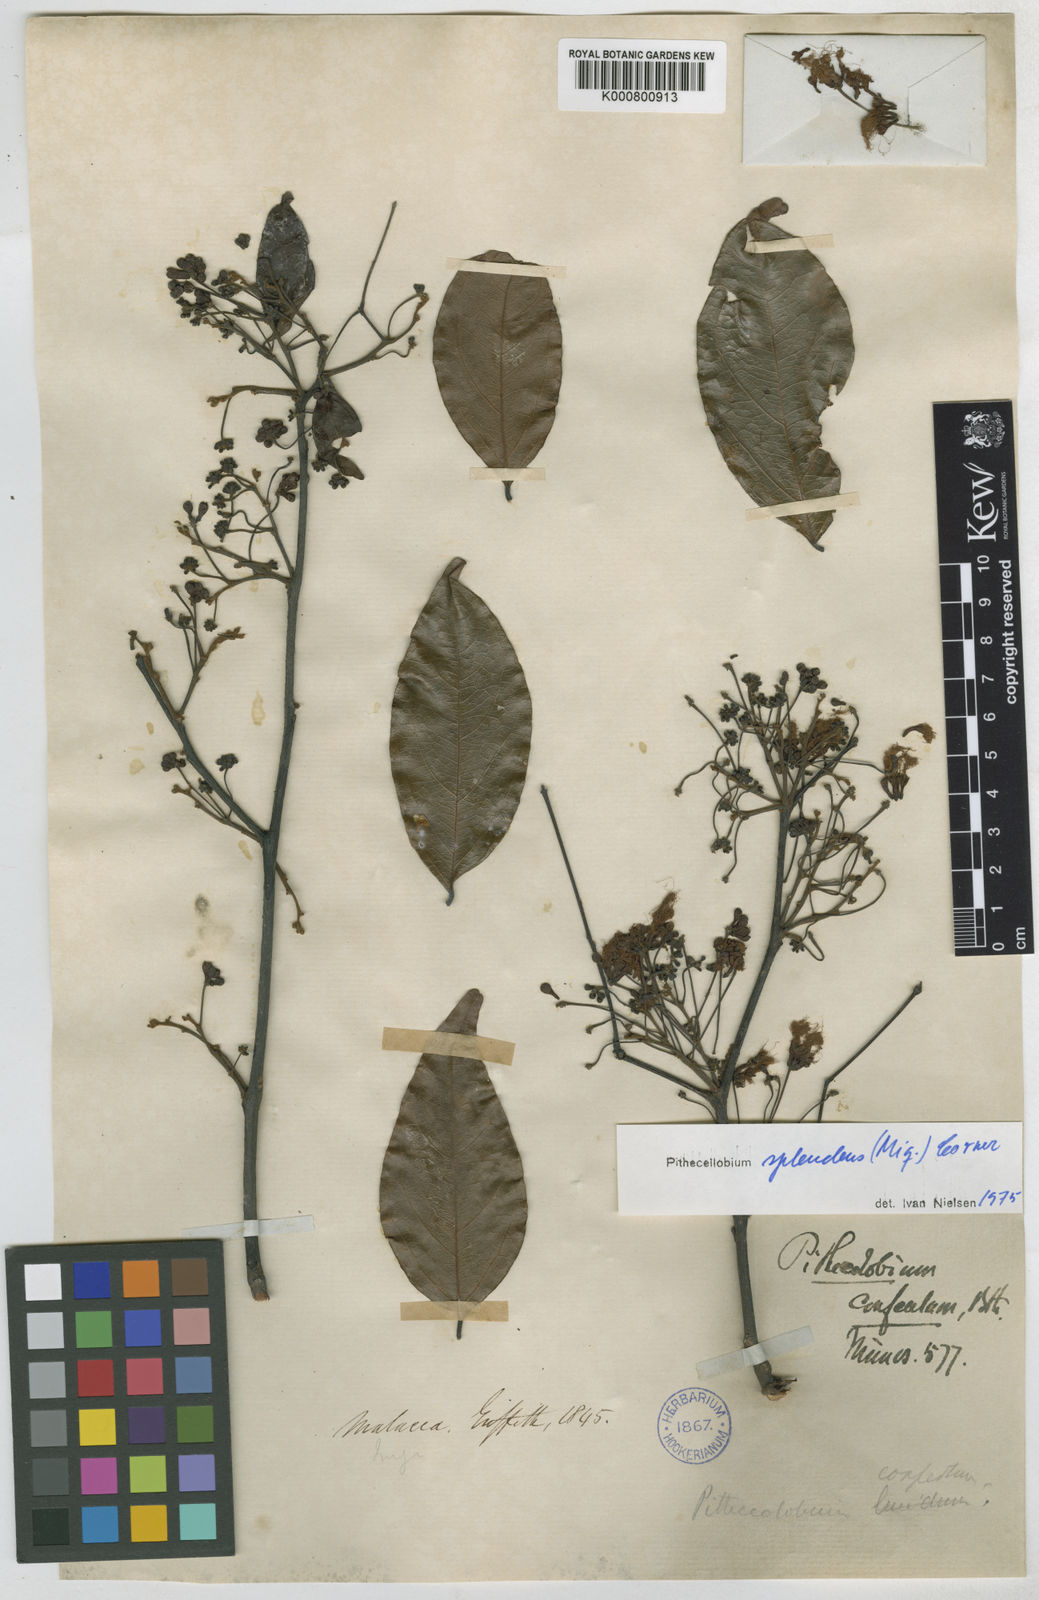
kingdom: Plantae
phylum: Tracheophyta
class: Magnoliopsida
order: Fabales
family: Fabaceae
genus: Albizia
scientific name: Albizia splendens
